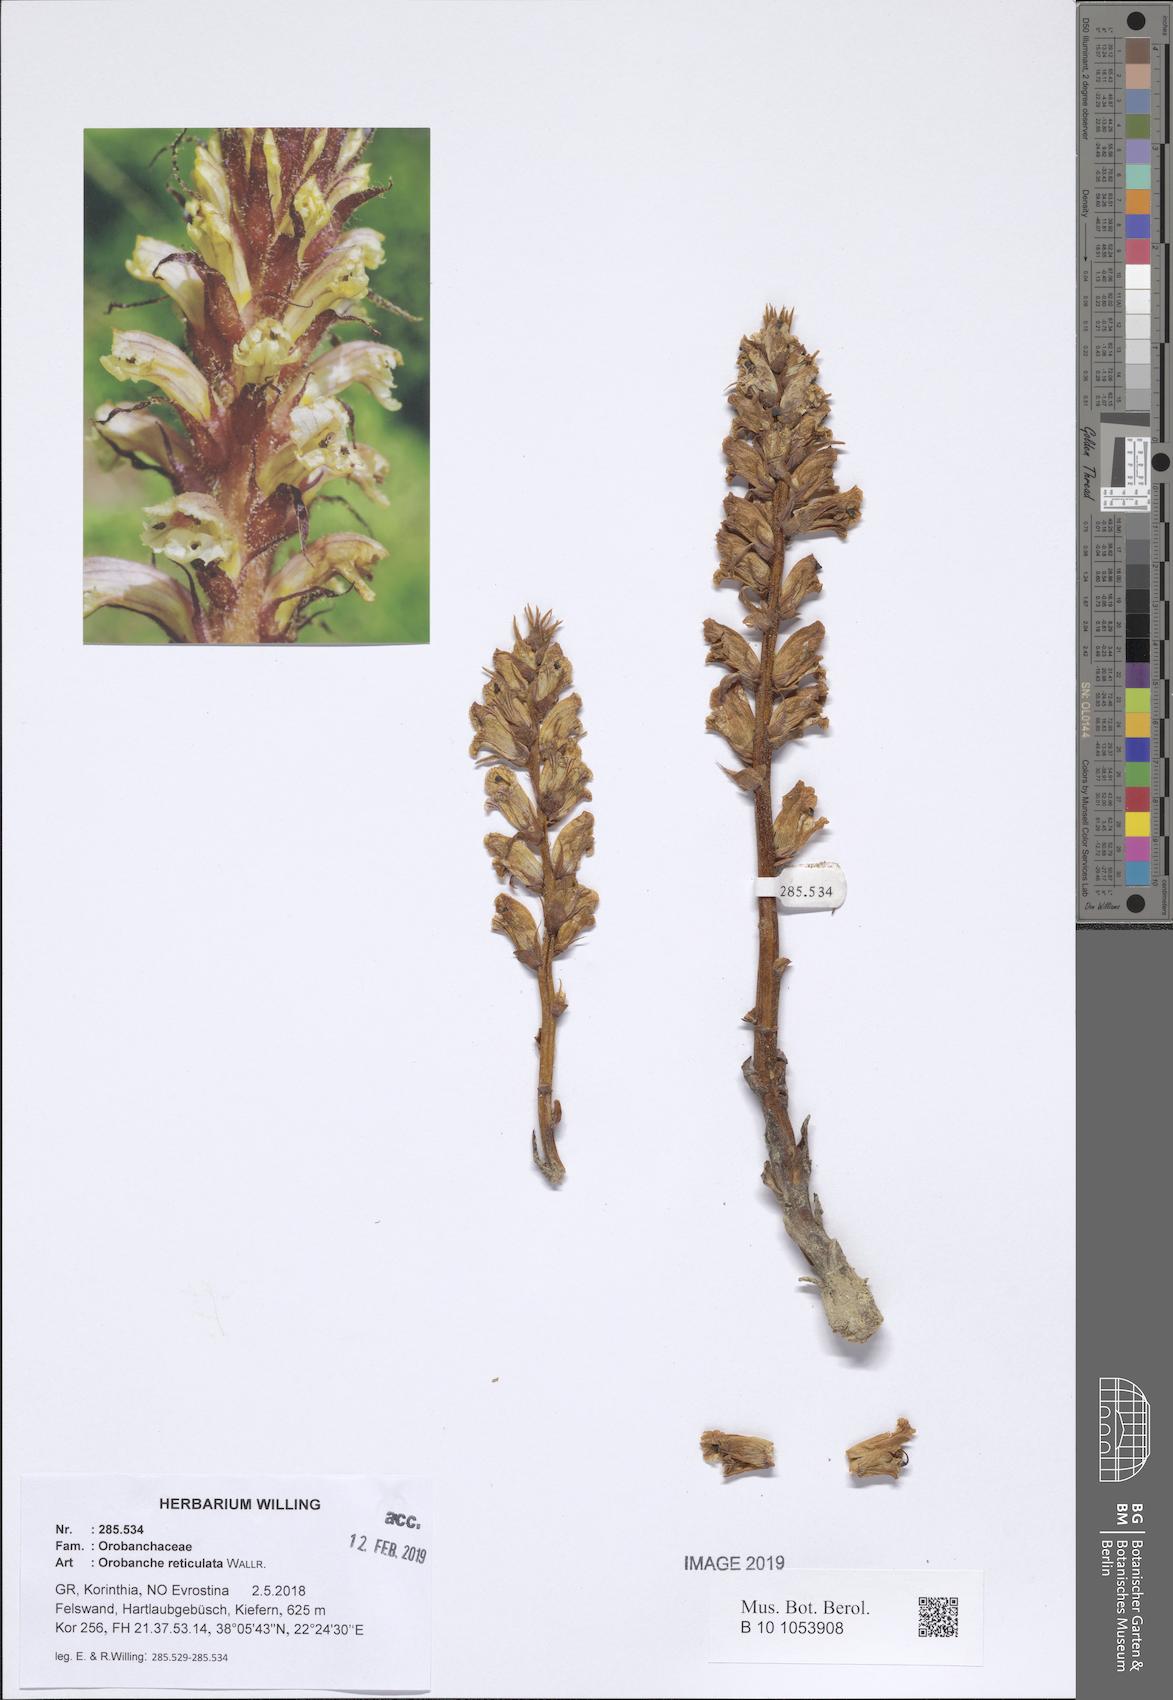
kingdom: Plantae
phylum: Tracheophyta
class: Magnoliopsida
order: Lamiales
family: Orobanchaceae
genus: Orobanche
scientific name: Orobanche reticulata
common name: Thistle broomrape
